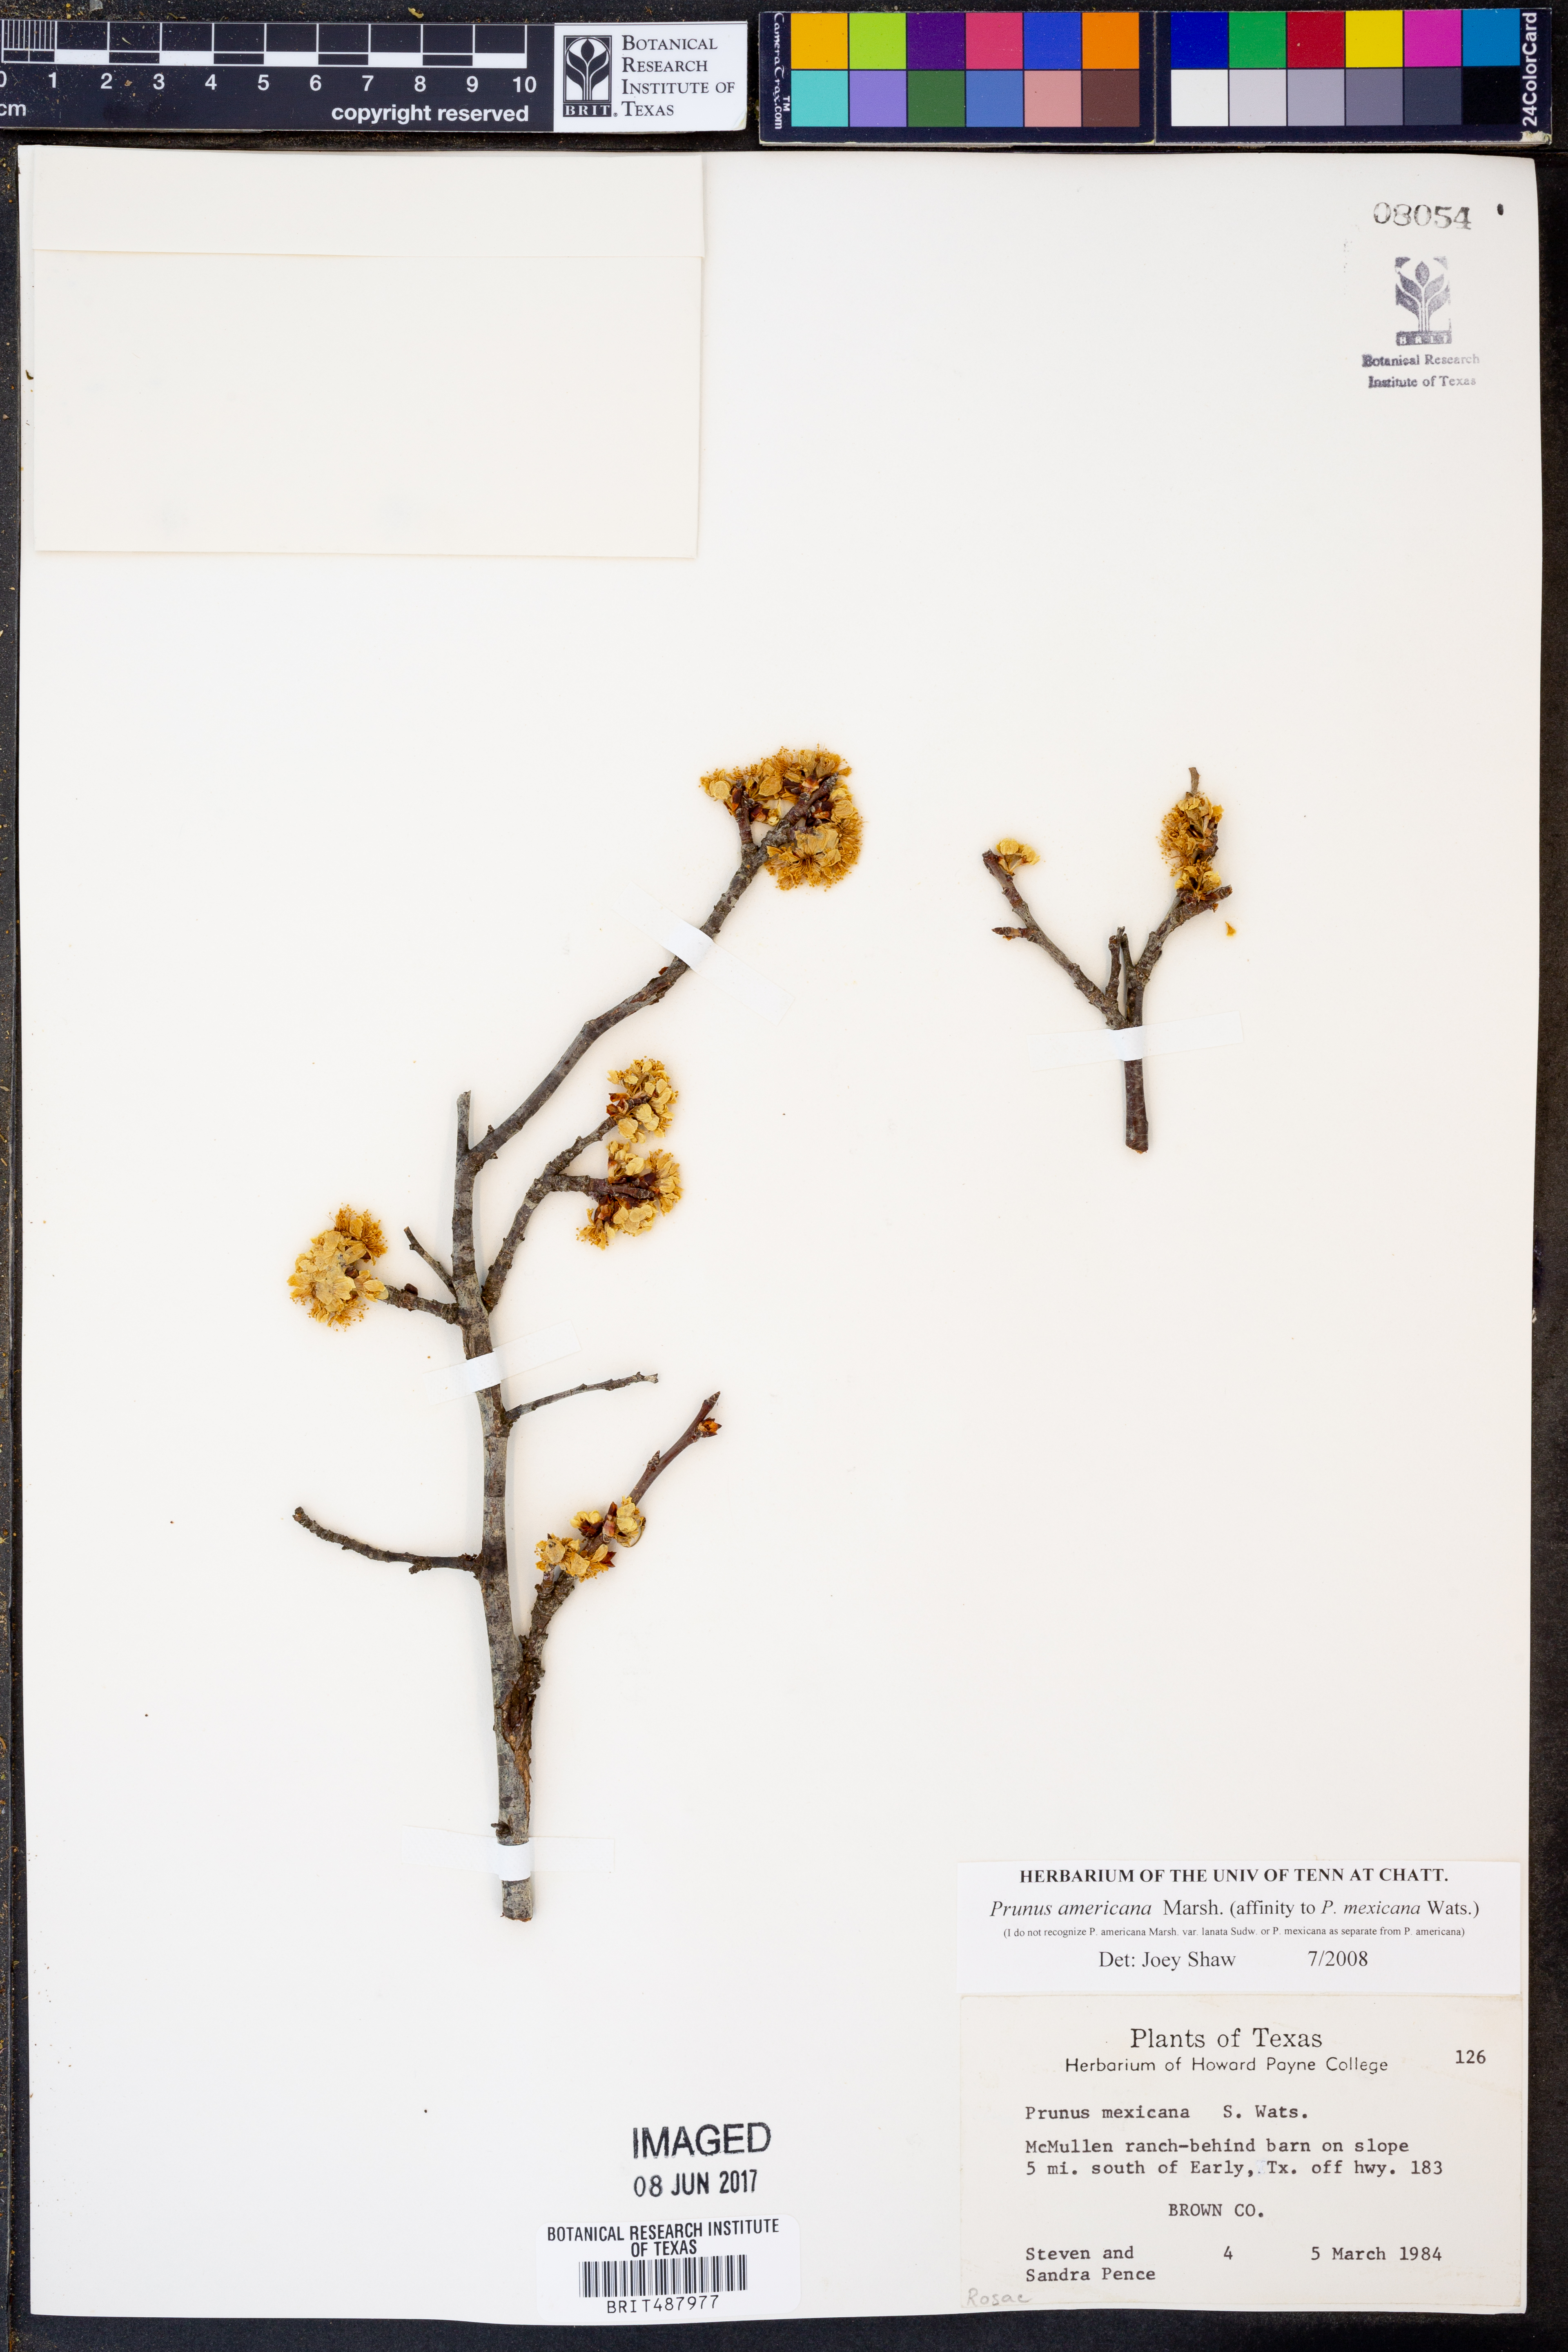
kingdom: Plantae
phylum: Tracheophyta
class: Magnoliopsida
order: Rosales
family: Rosaceae
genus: Prunus
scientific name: Prunus americana
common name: American plum
